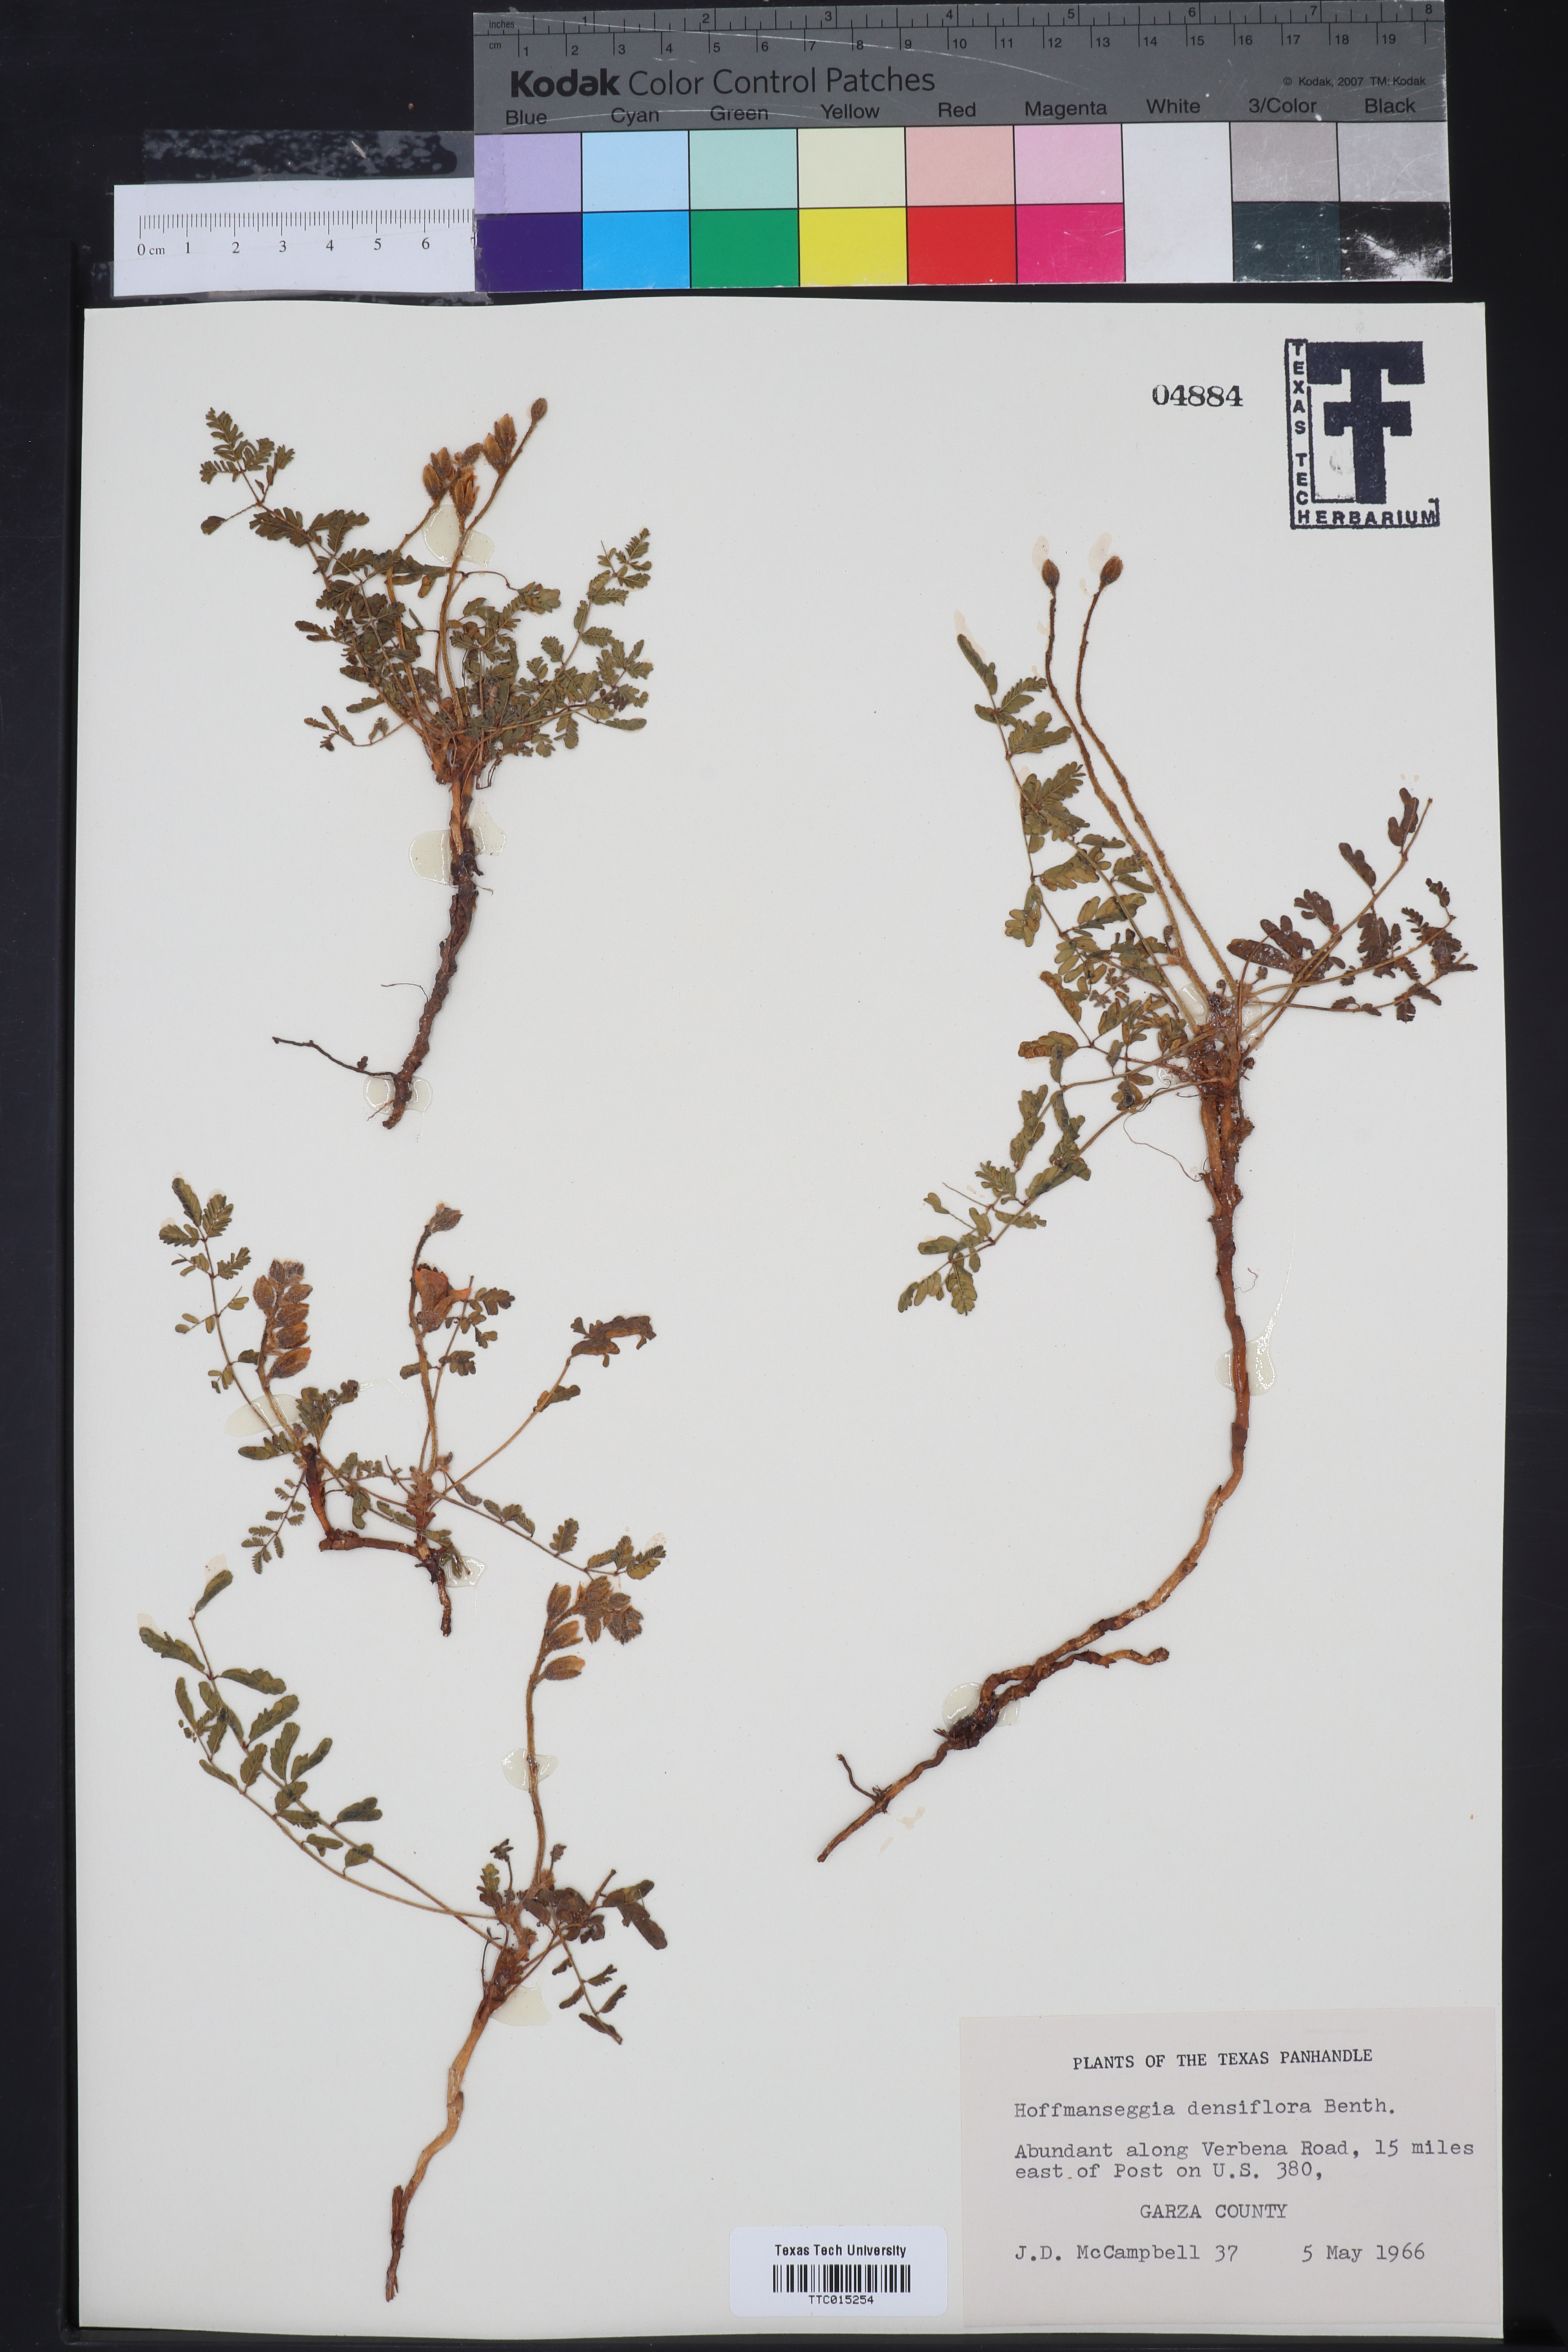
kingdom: Plantae
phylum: Tracheophyta
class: Magnoliopsida
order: Fabales
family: Fabaceae
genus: Hoffmannseggia
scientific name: Hoffmannseggia glauca
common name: Pignut
